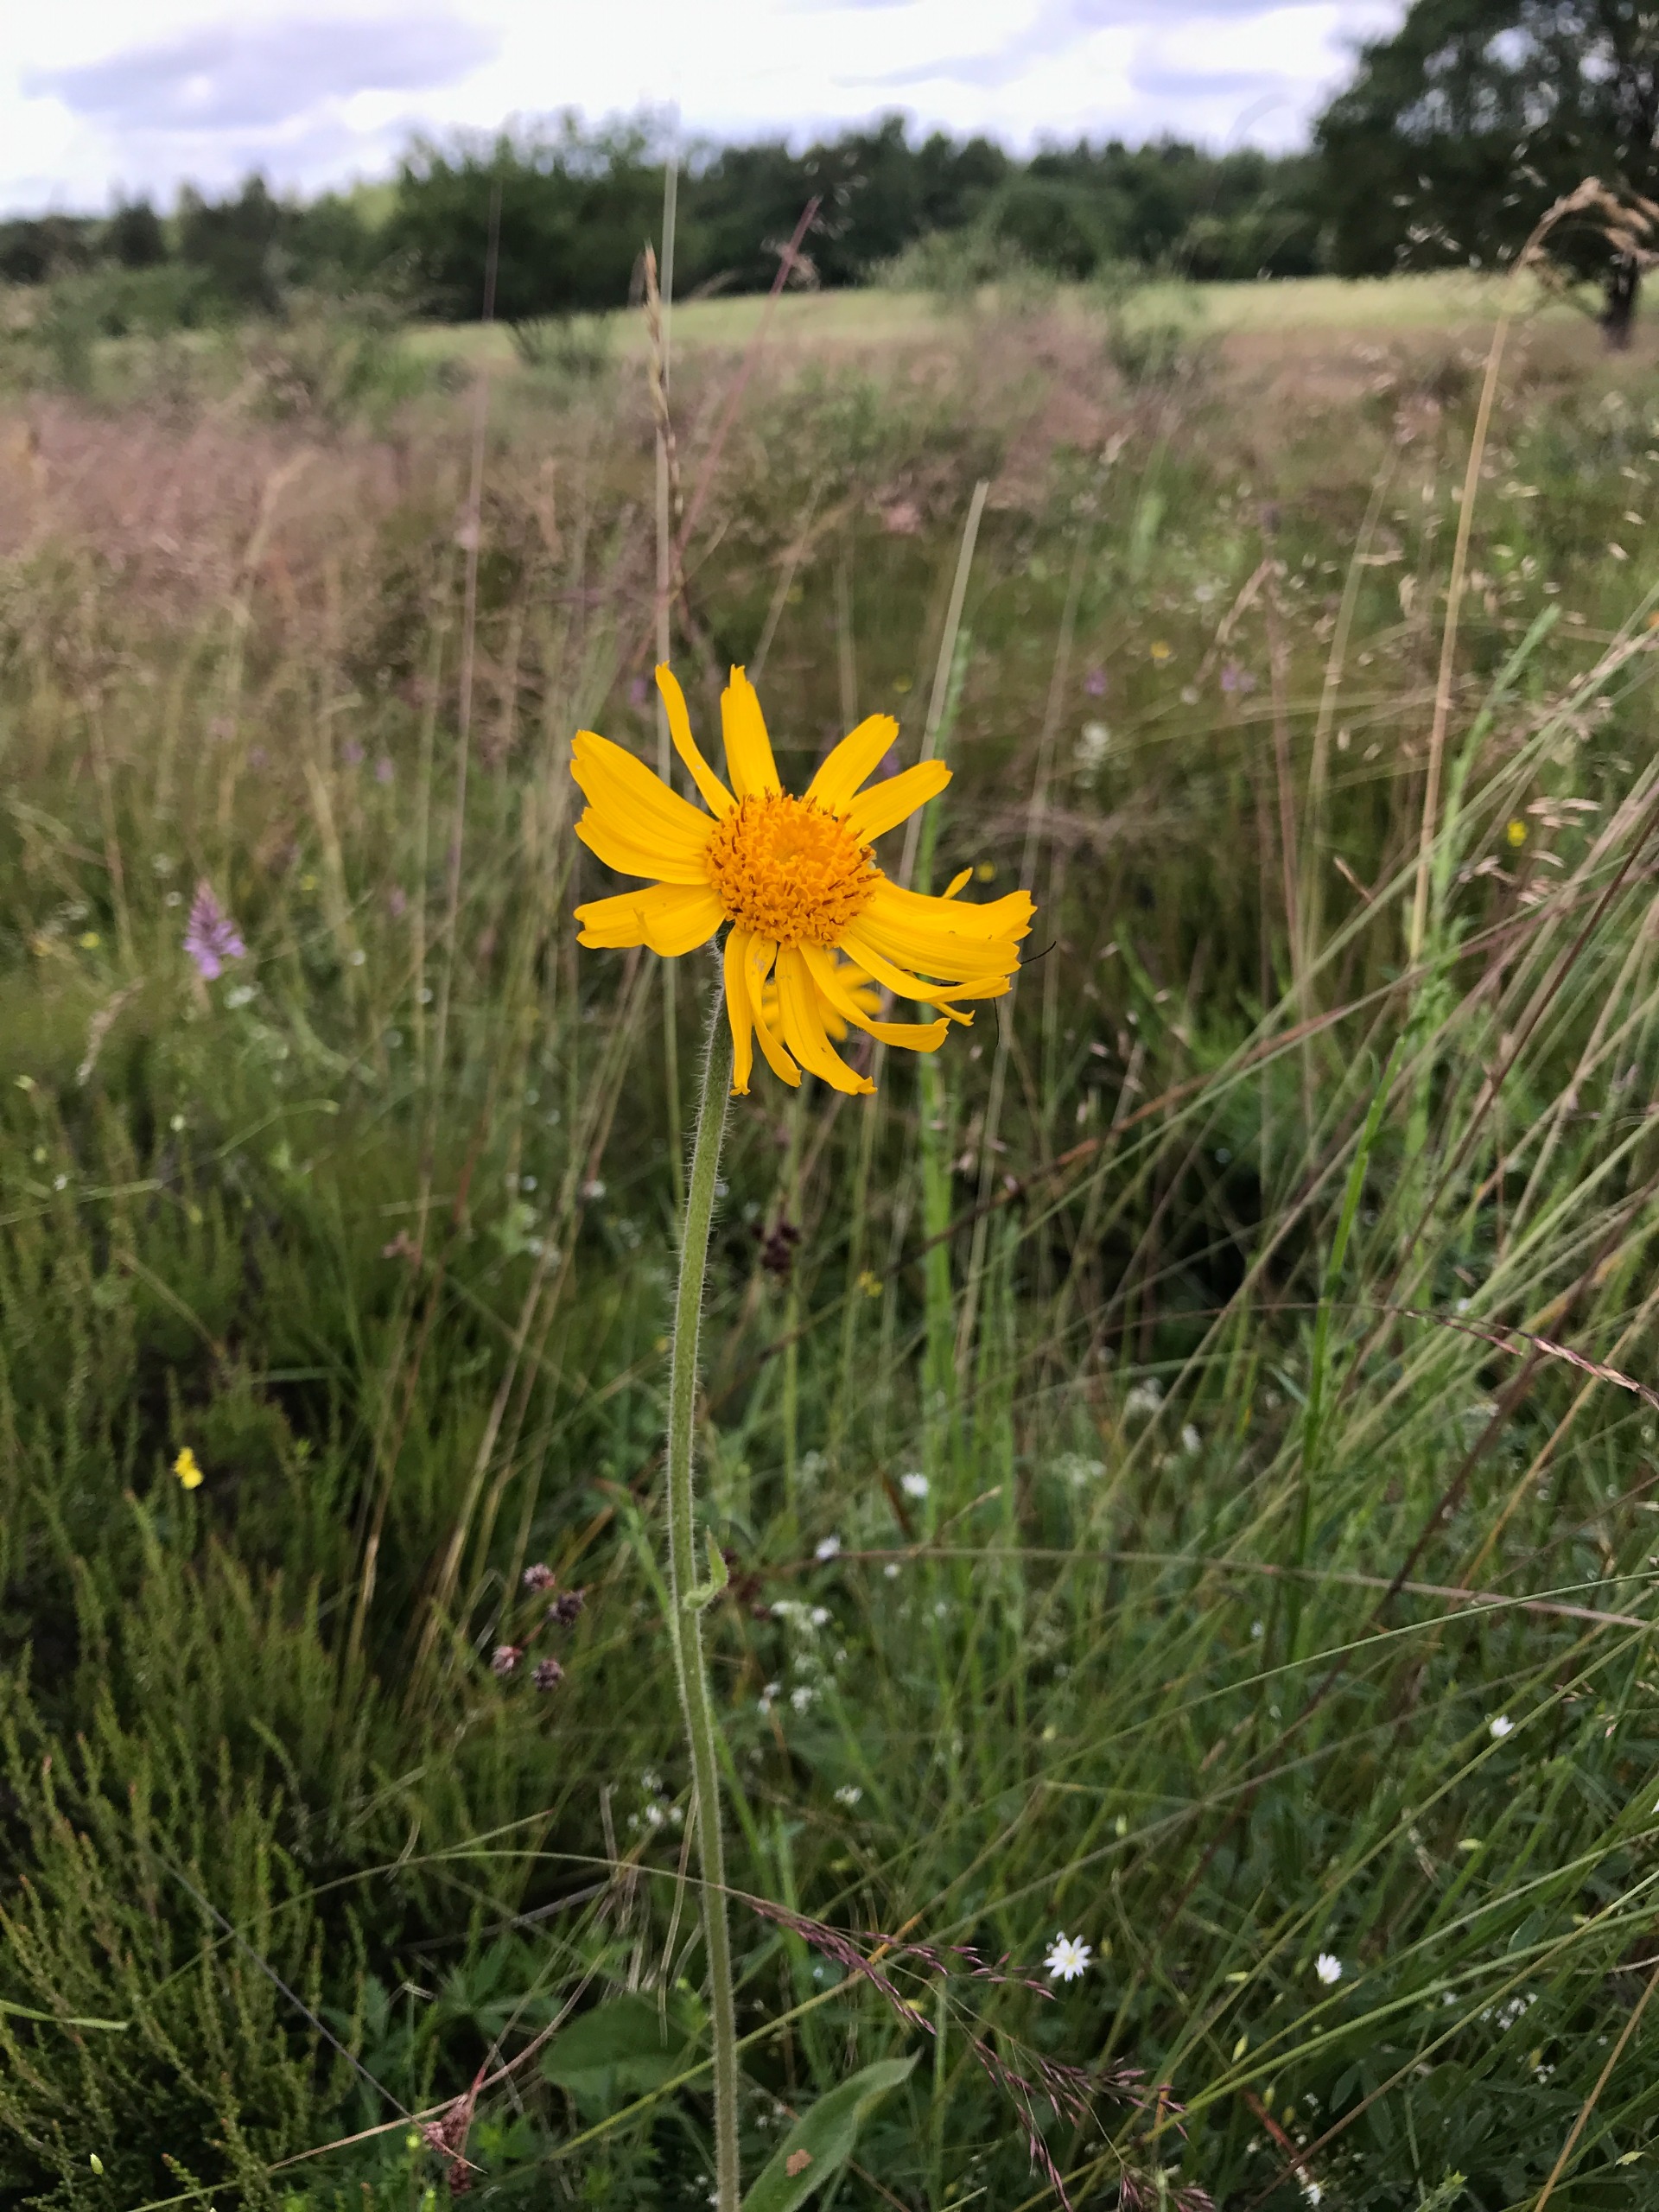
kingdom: Plantae
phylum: Tracheophyta
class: Magnoliopsida
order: Asterales
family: Asteraceae
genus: Arnica
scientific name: Arnica montana
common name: Guldblomme
